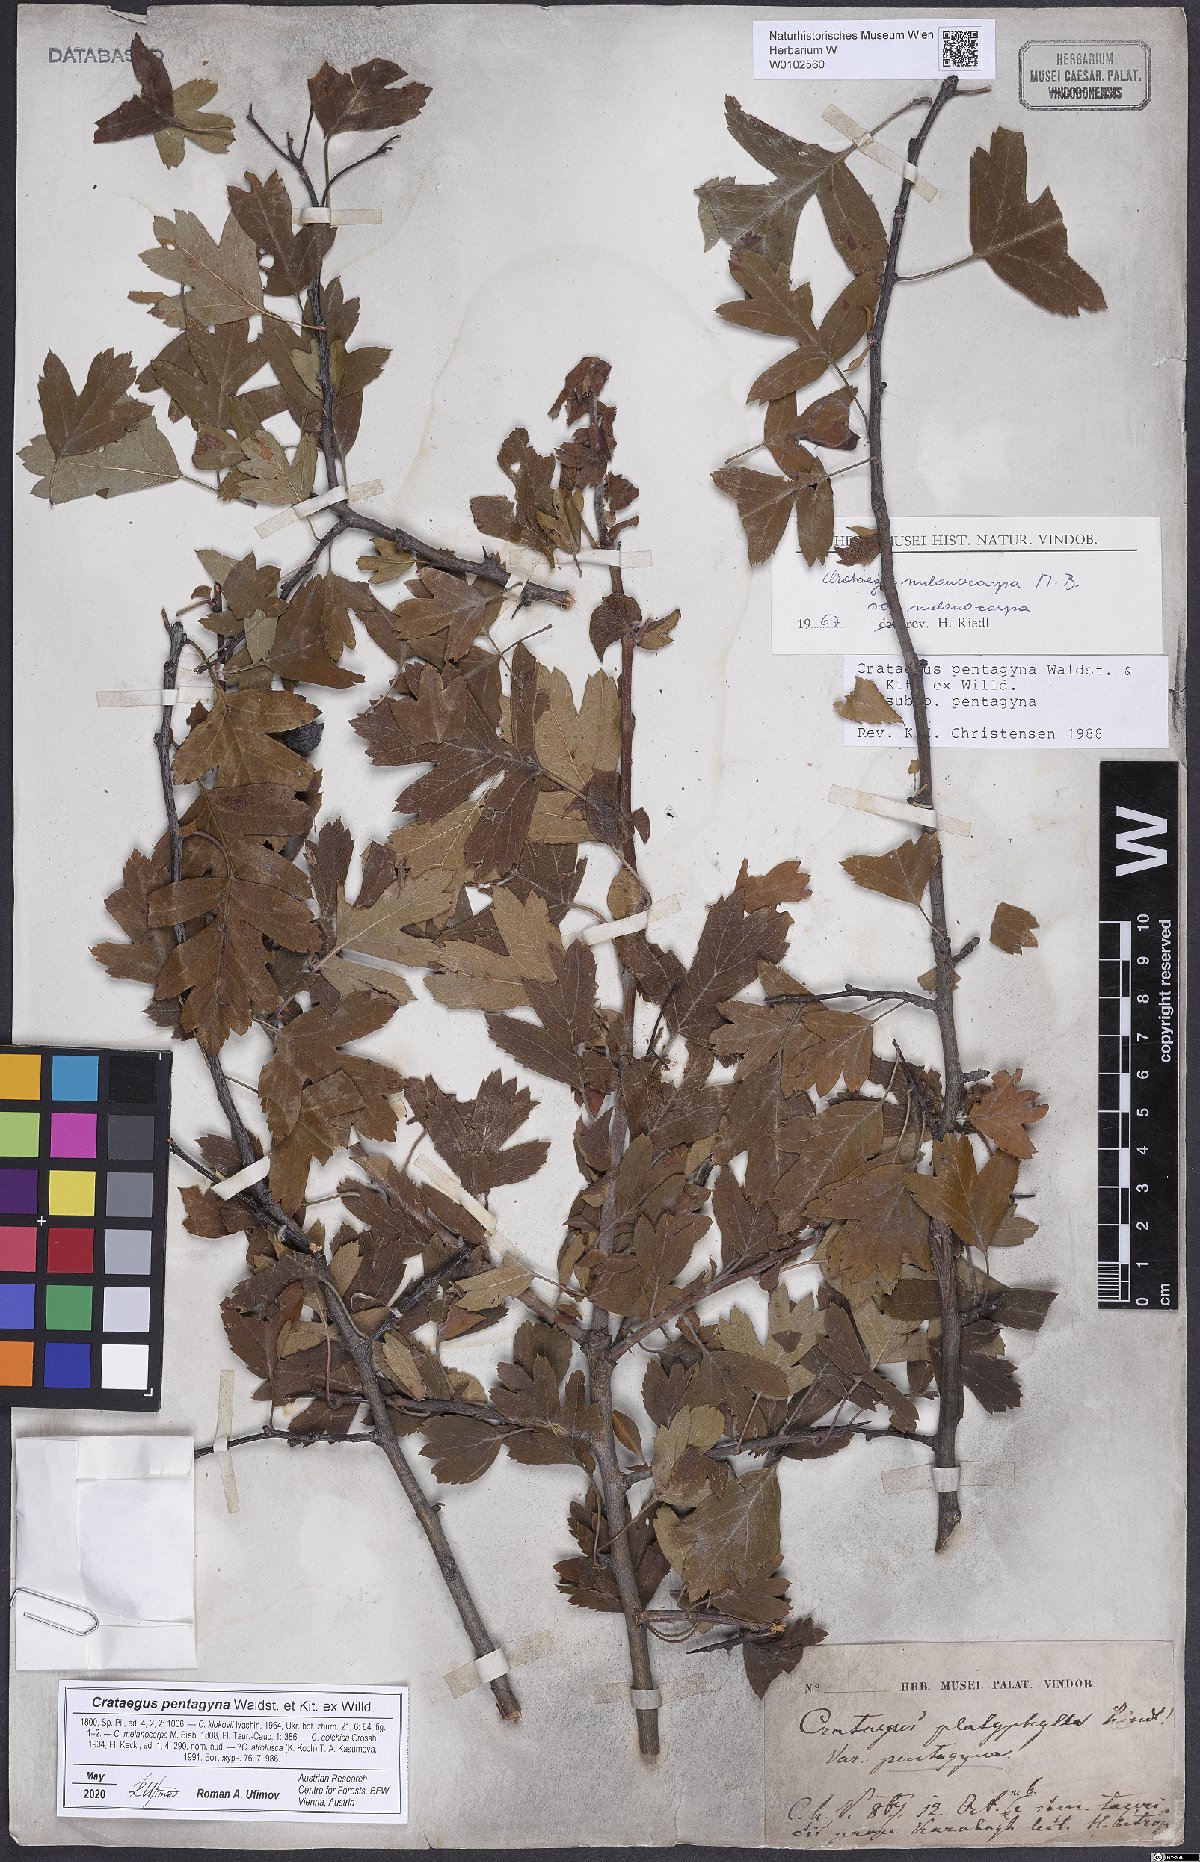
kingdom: Plantae
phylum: Tracheophyta
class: Magnoliopsida
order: Rosales
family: Rosaceae
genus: Crataegus
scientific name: Crataegus pentagyna
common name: Small-flowered black hawthorn
